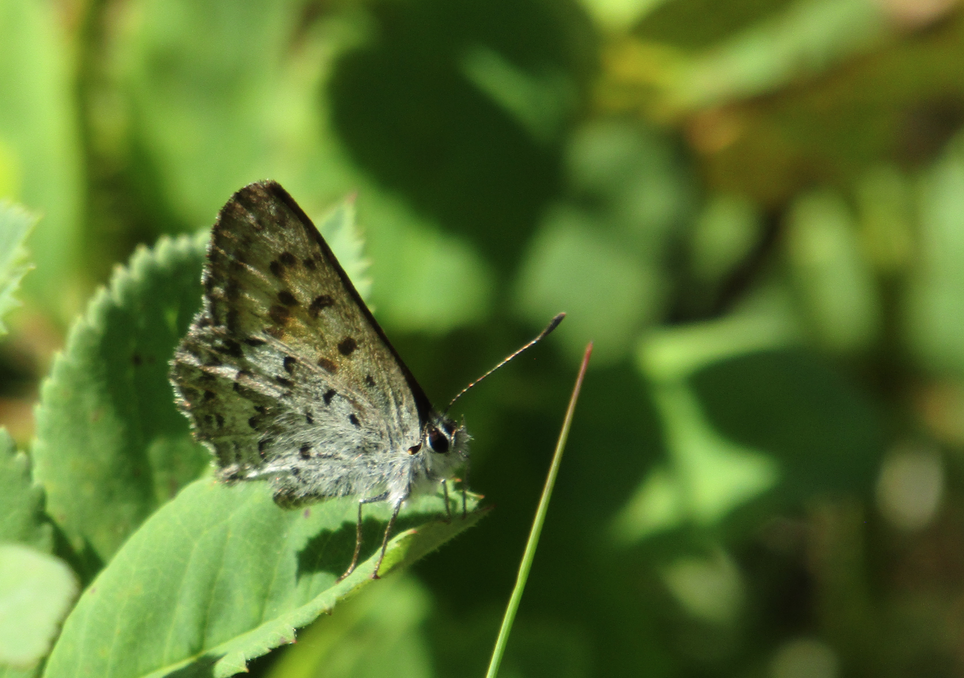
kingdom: Animalia
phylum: Arthropoda
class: Insecta
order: Lepidoptera
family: Lycaenidae
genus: Lycaena
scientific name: Lycaena mariposa
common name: Mariposa Copper
